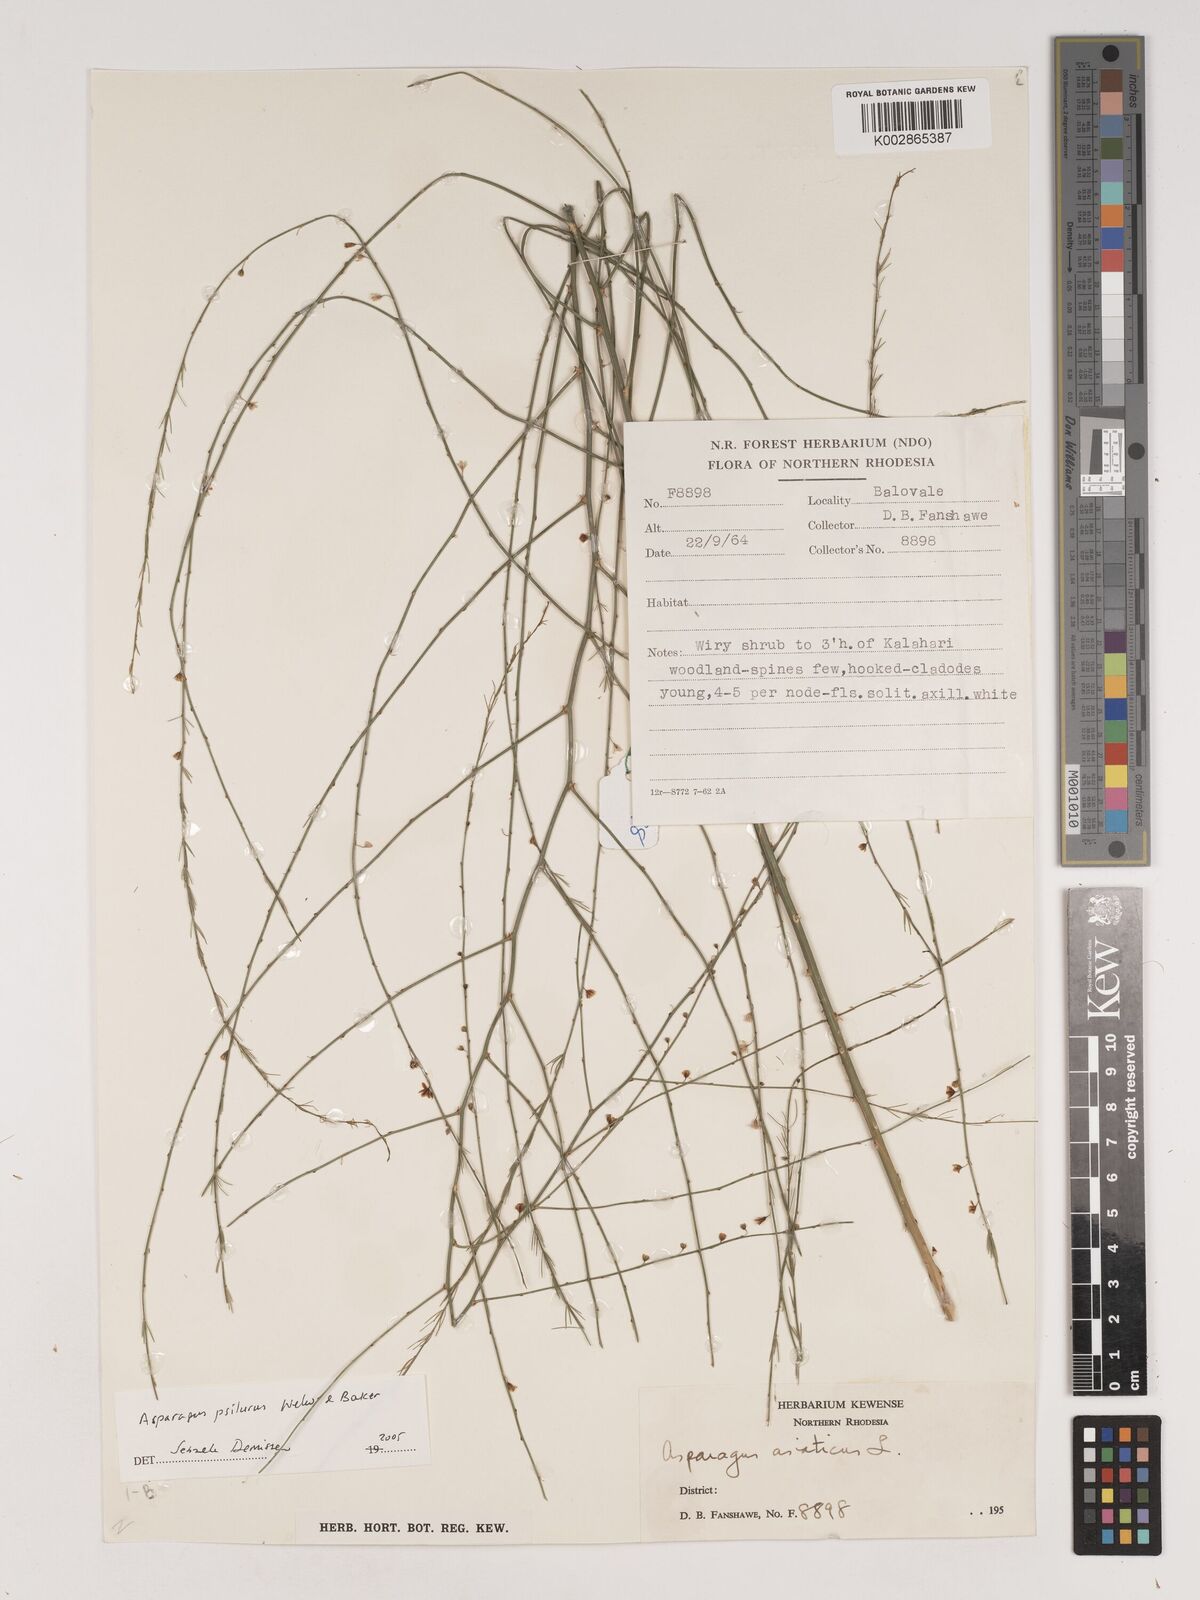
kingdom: Plantae
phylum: Tracheophyta
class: Liliopsida
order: Asparagales
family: Asparagaceae
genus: Asparagus
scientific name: Asparagus psilurus
